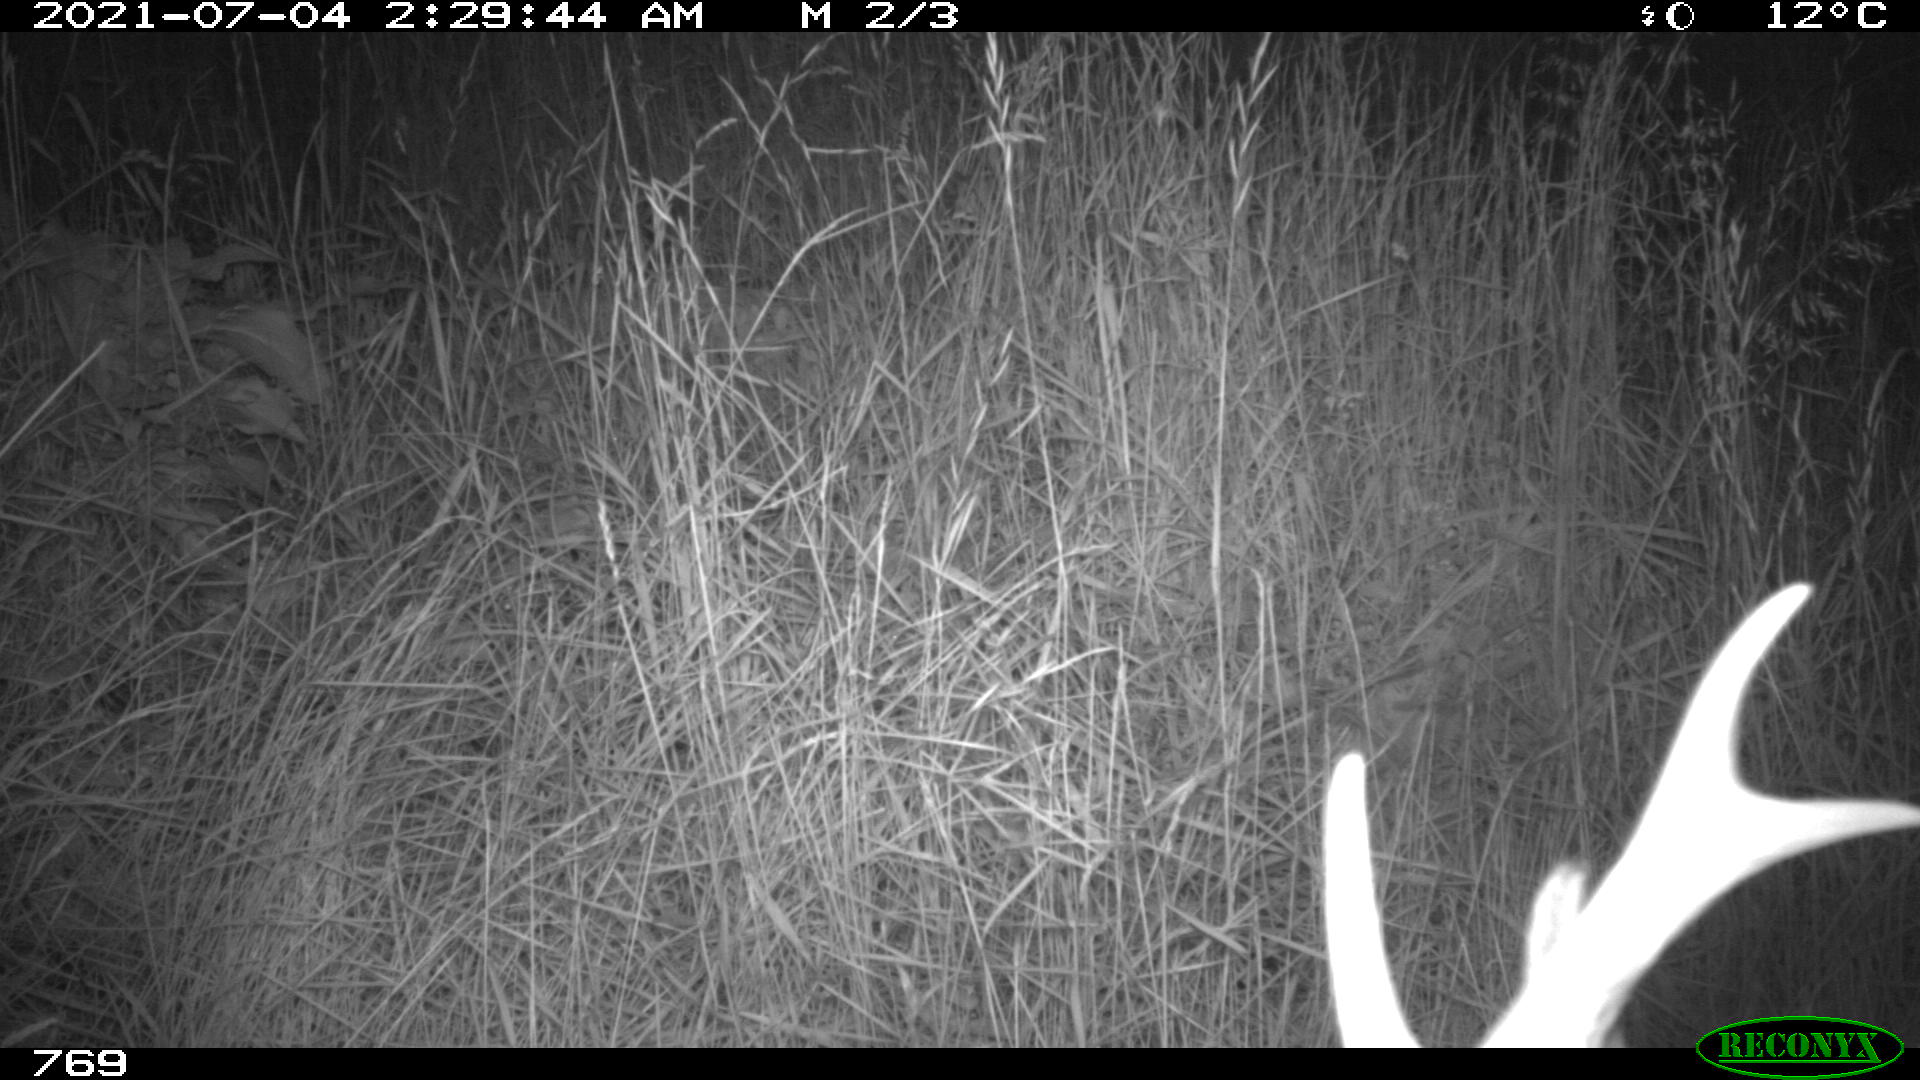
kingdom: Animalia
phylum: Chordata
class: Mammalia
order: Artiodactyla
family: Cervidae
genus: Capreolus
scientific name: Capreolus capreolus
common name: Western roe deer
